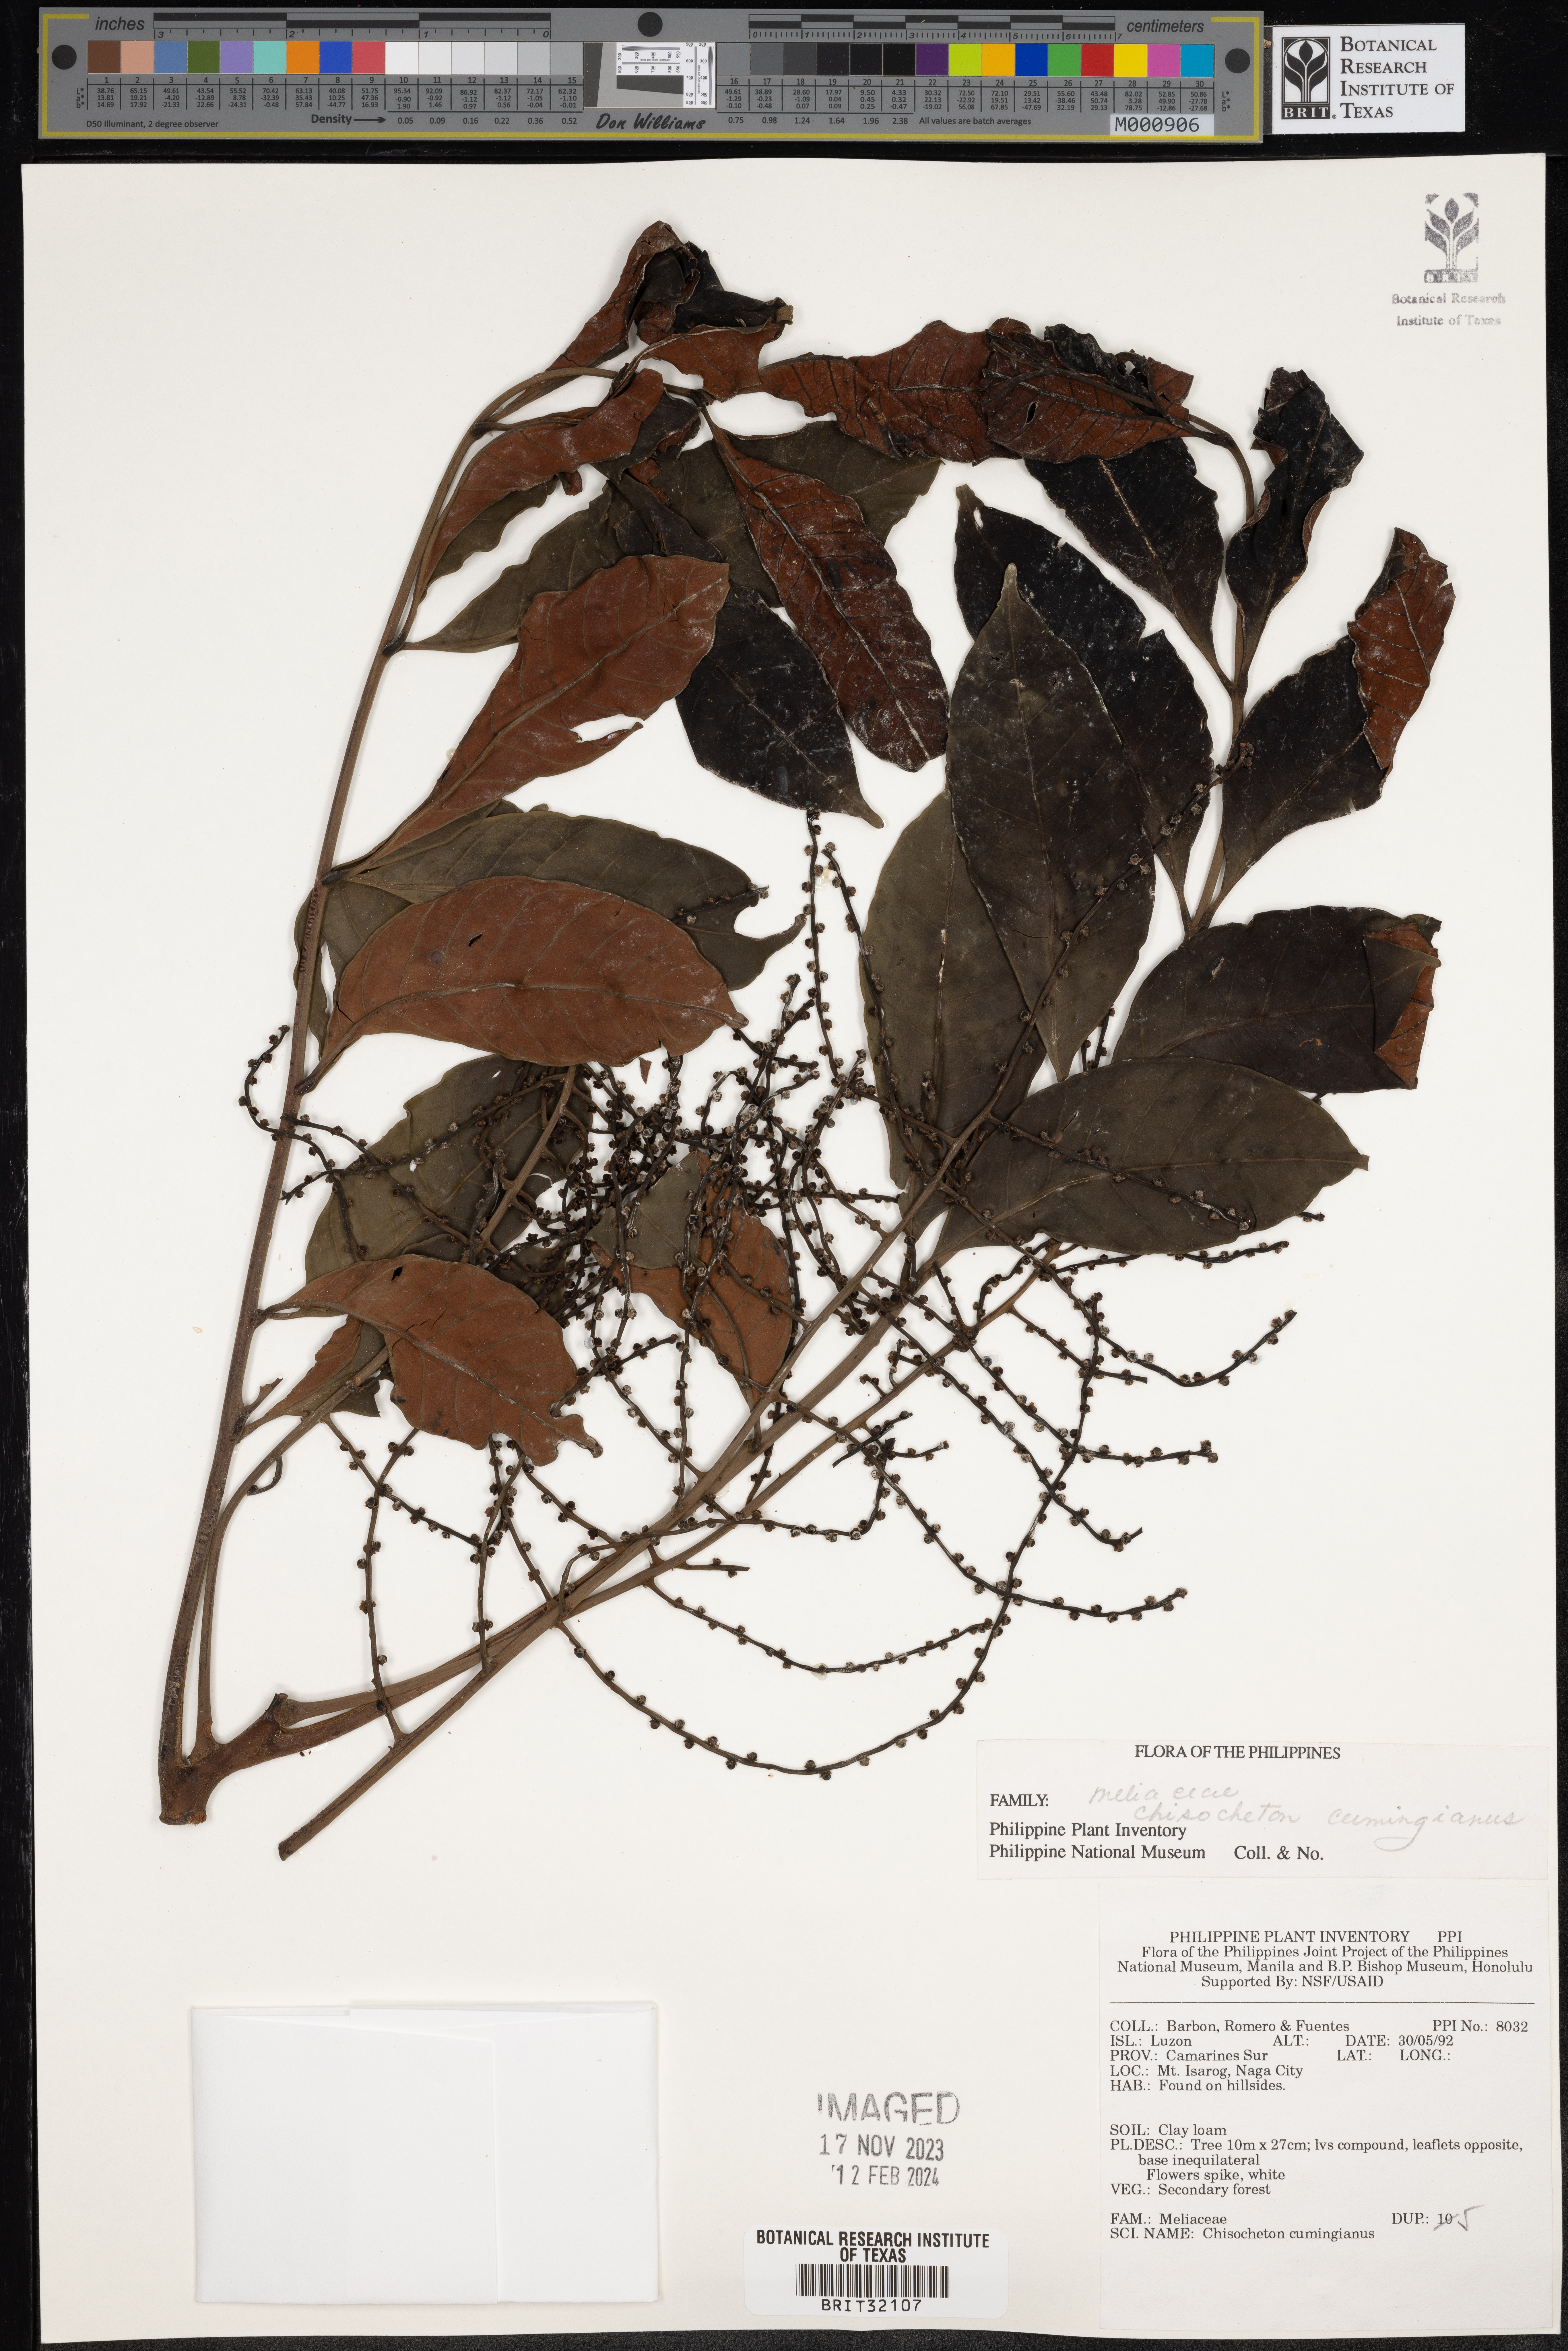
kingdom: Plantae
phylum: Tracheophyta
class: Magnoliopsida
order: Sapindales
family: Meliaceae
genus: Chisocheton
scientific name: Chisocheton cumingianus
